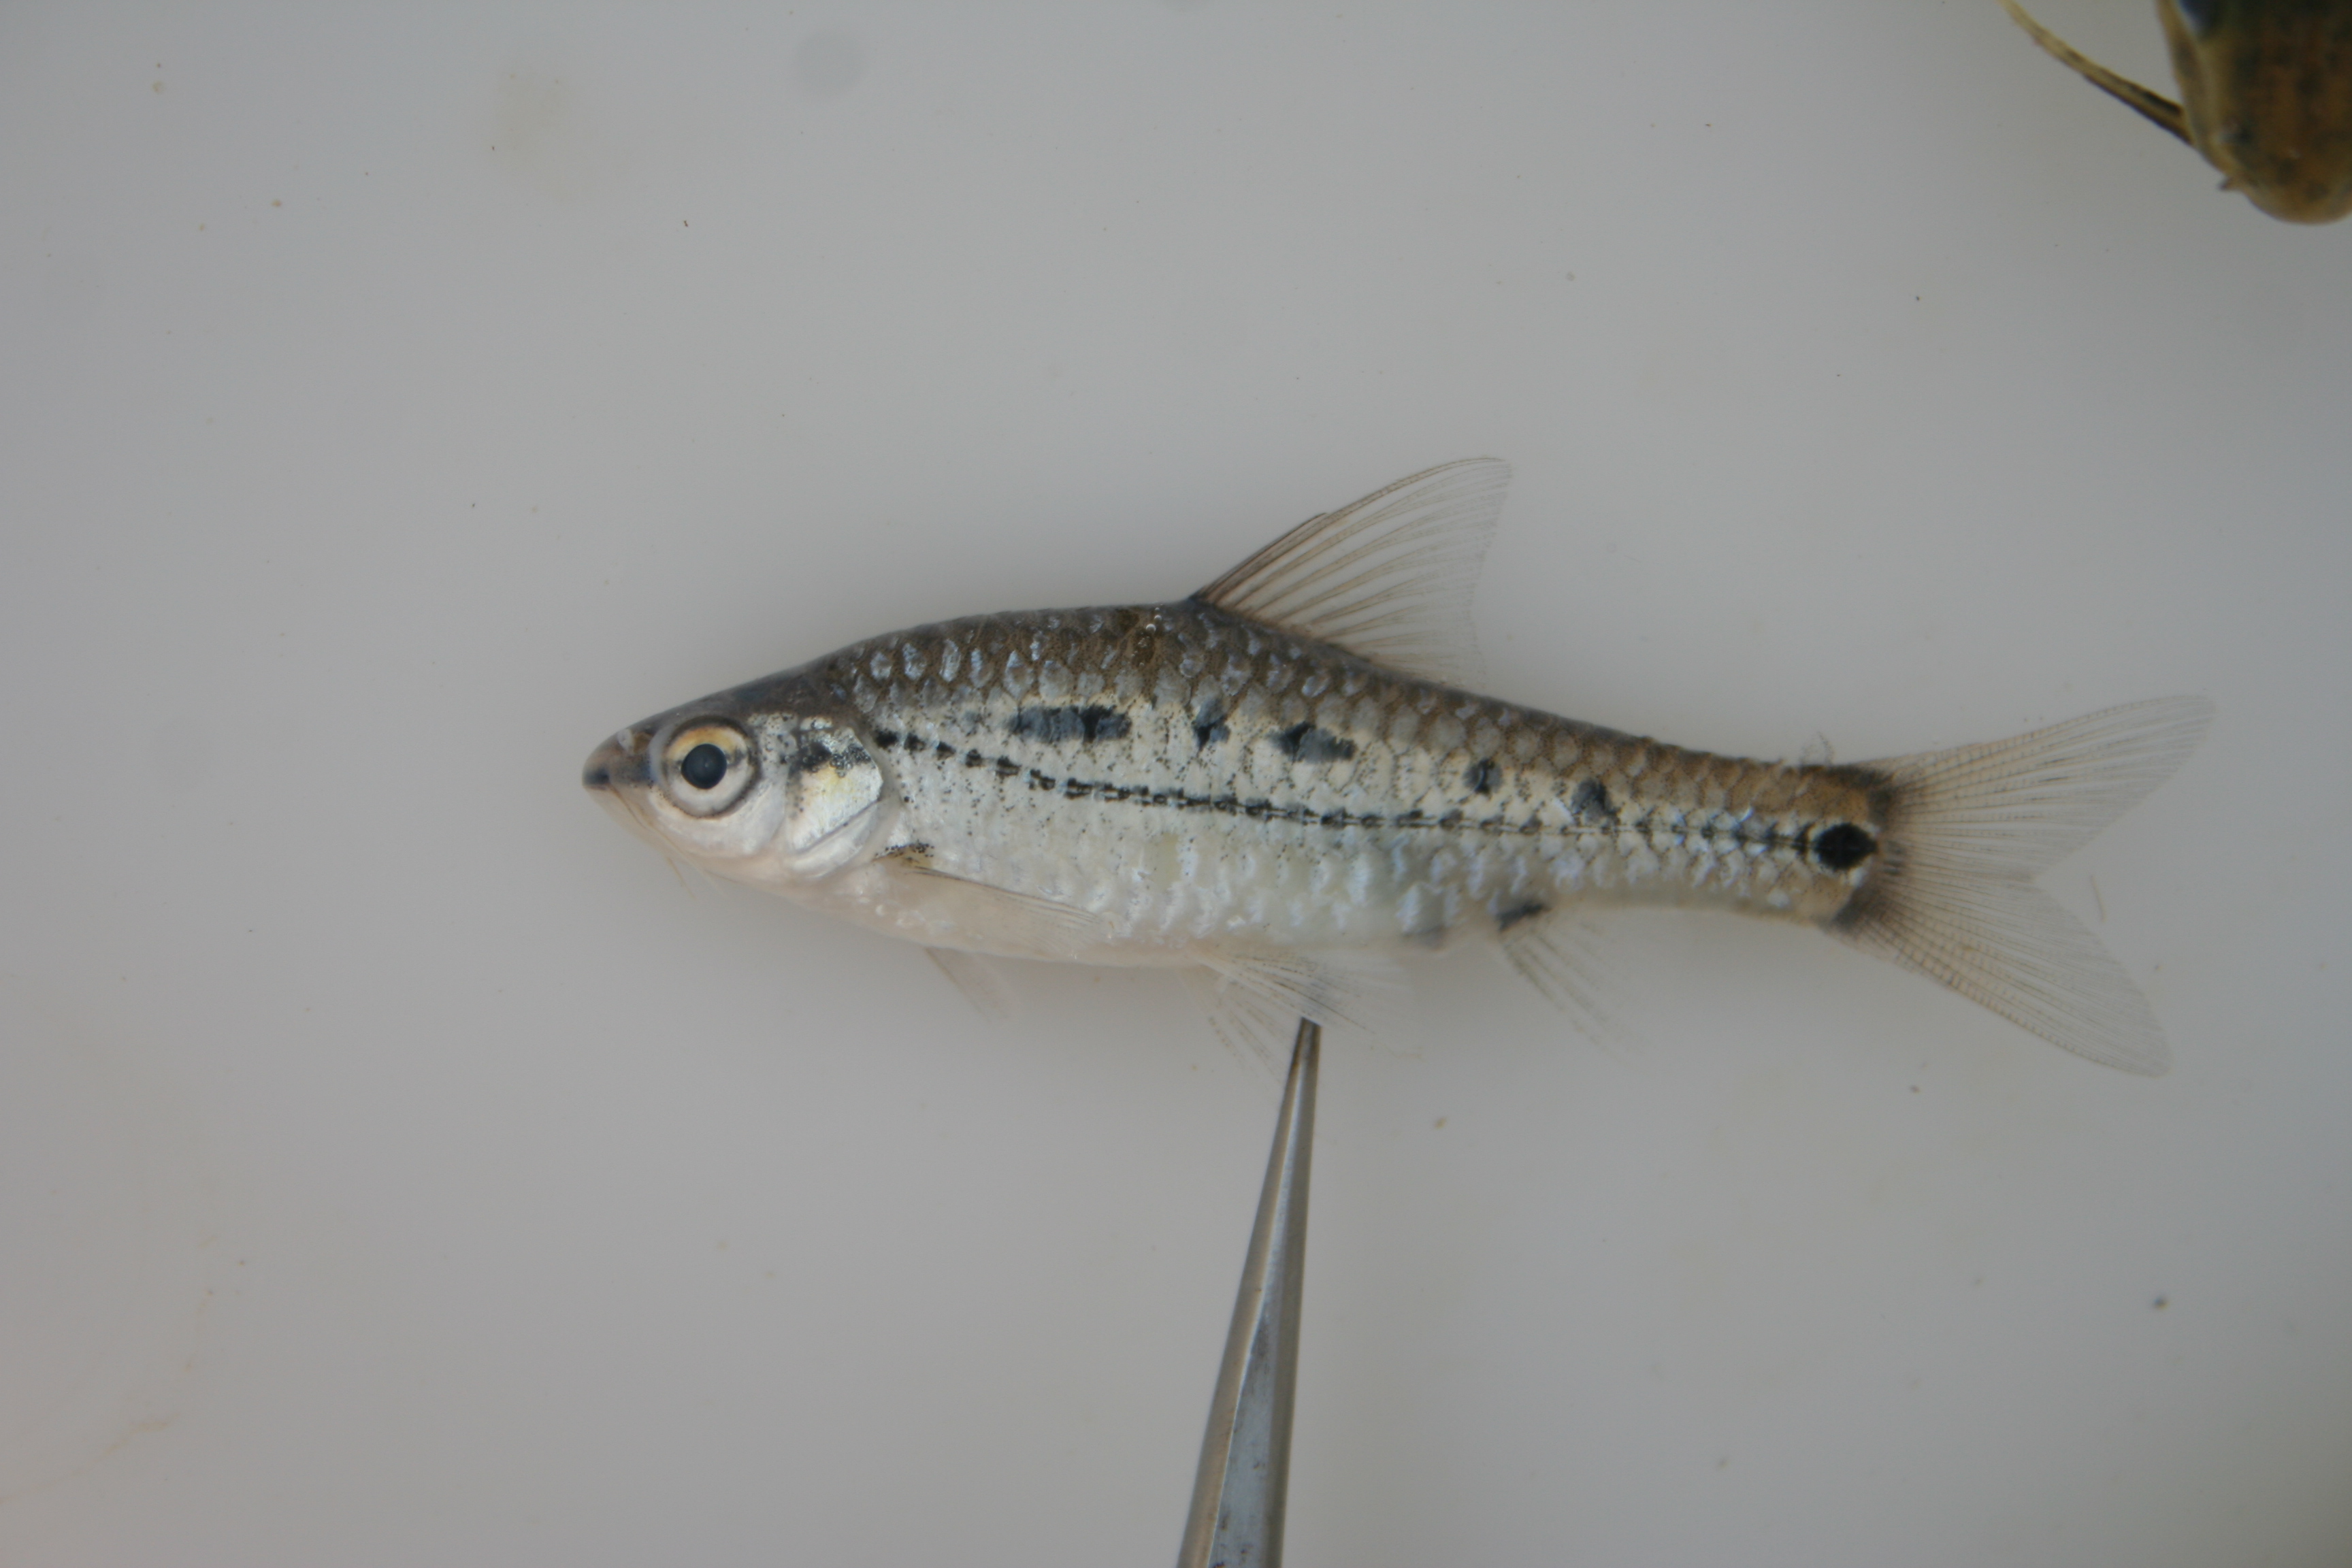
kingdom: Animalia
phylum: Chordata
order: Cypriniformes
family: Cyprinidae
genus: Enteromius
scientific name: Enteromius greenwoodi
